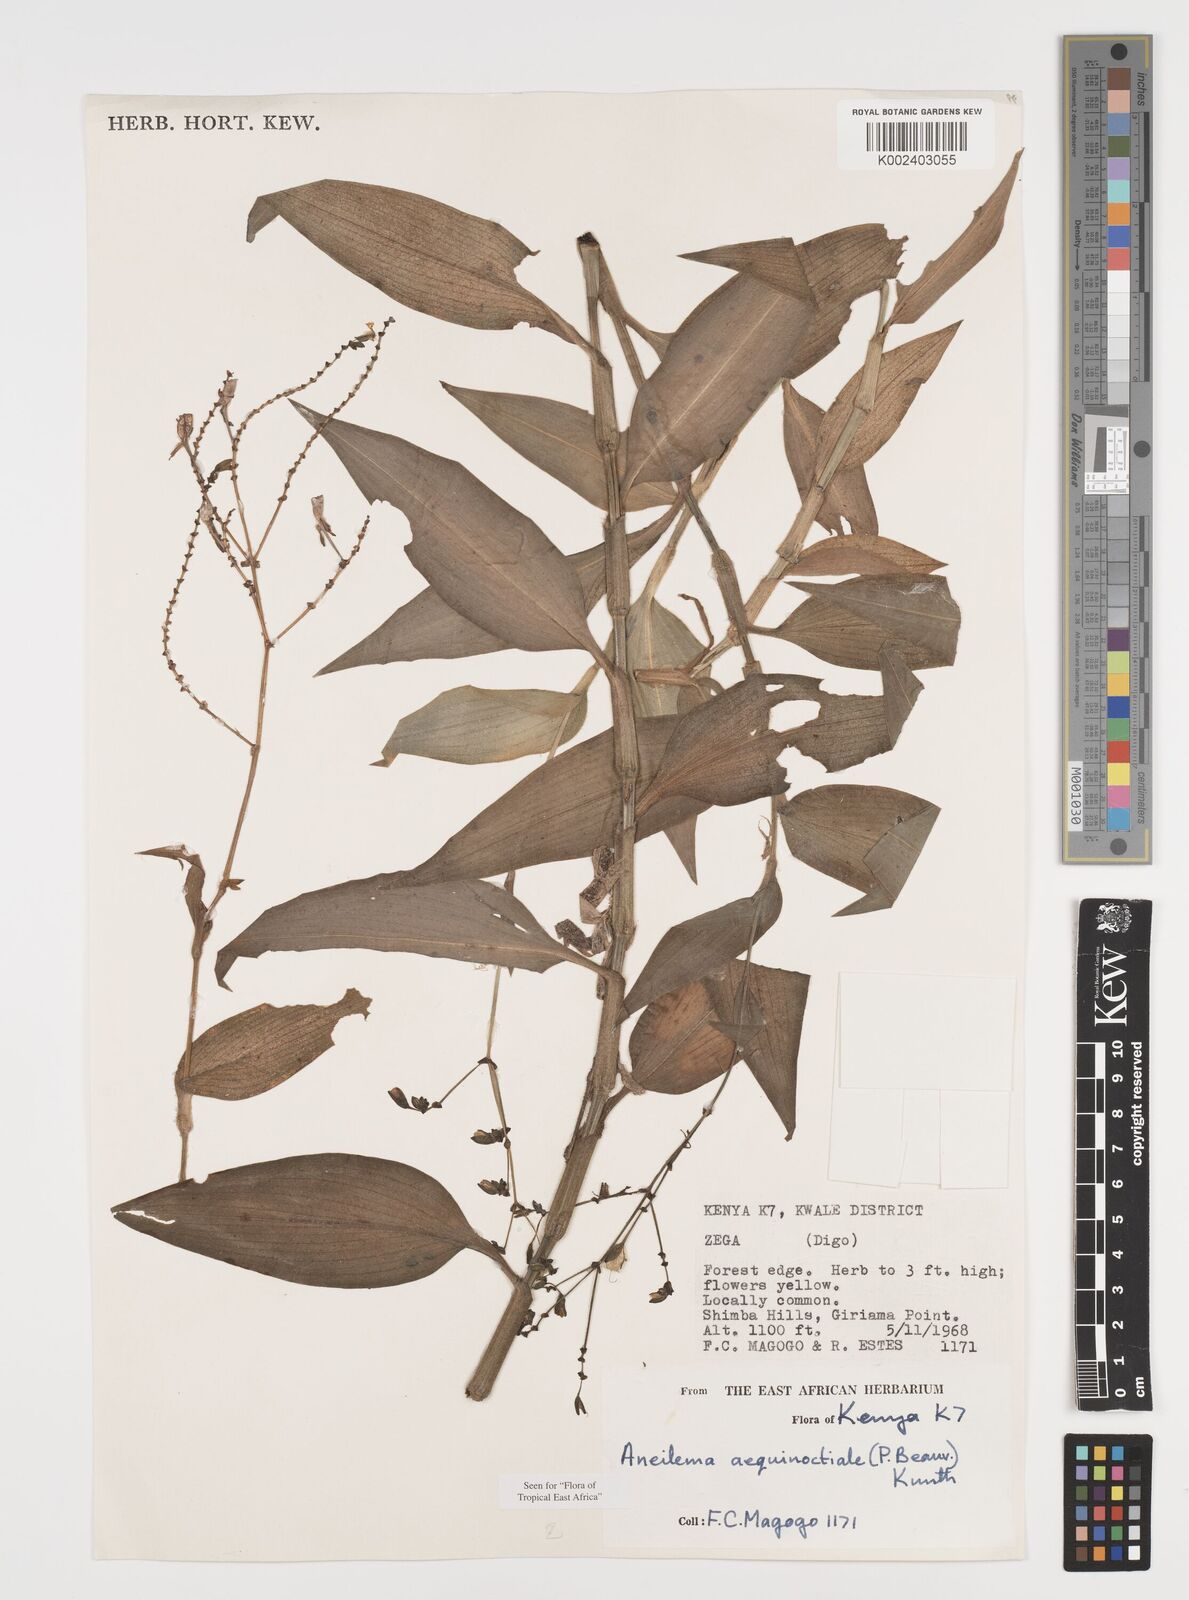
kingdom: Plantae
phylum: Tracheophyta
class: Liliopsida
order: Commelinales
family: Commelinaceae
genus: Aneilema
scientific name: Aneilema aequinoctiale
